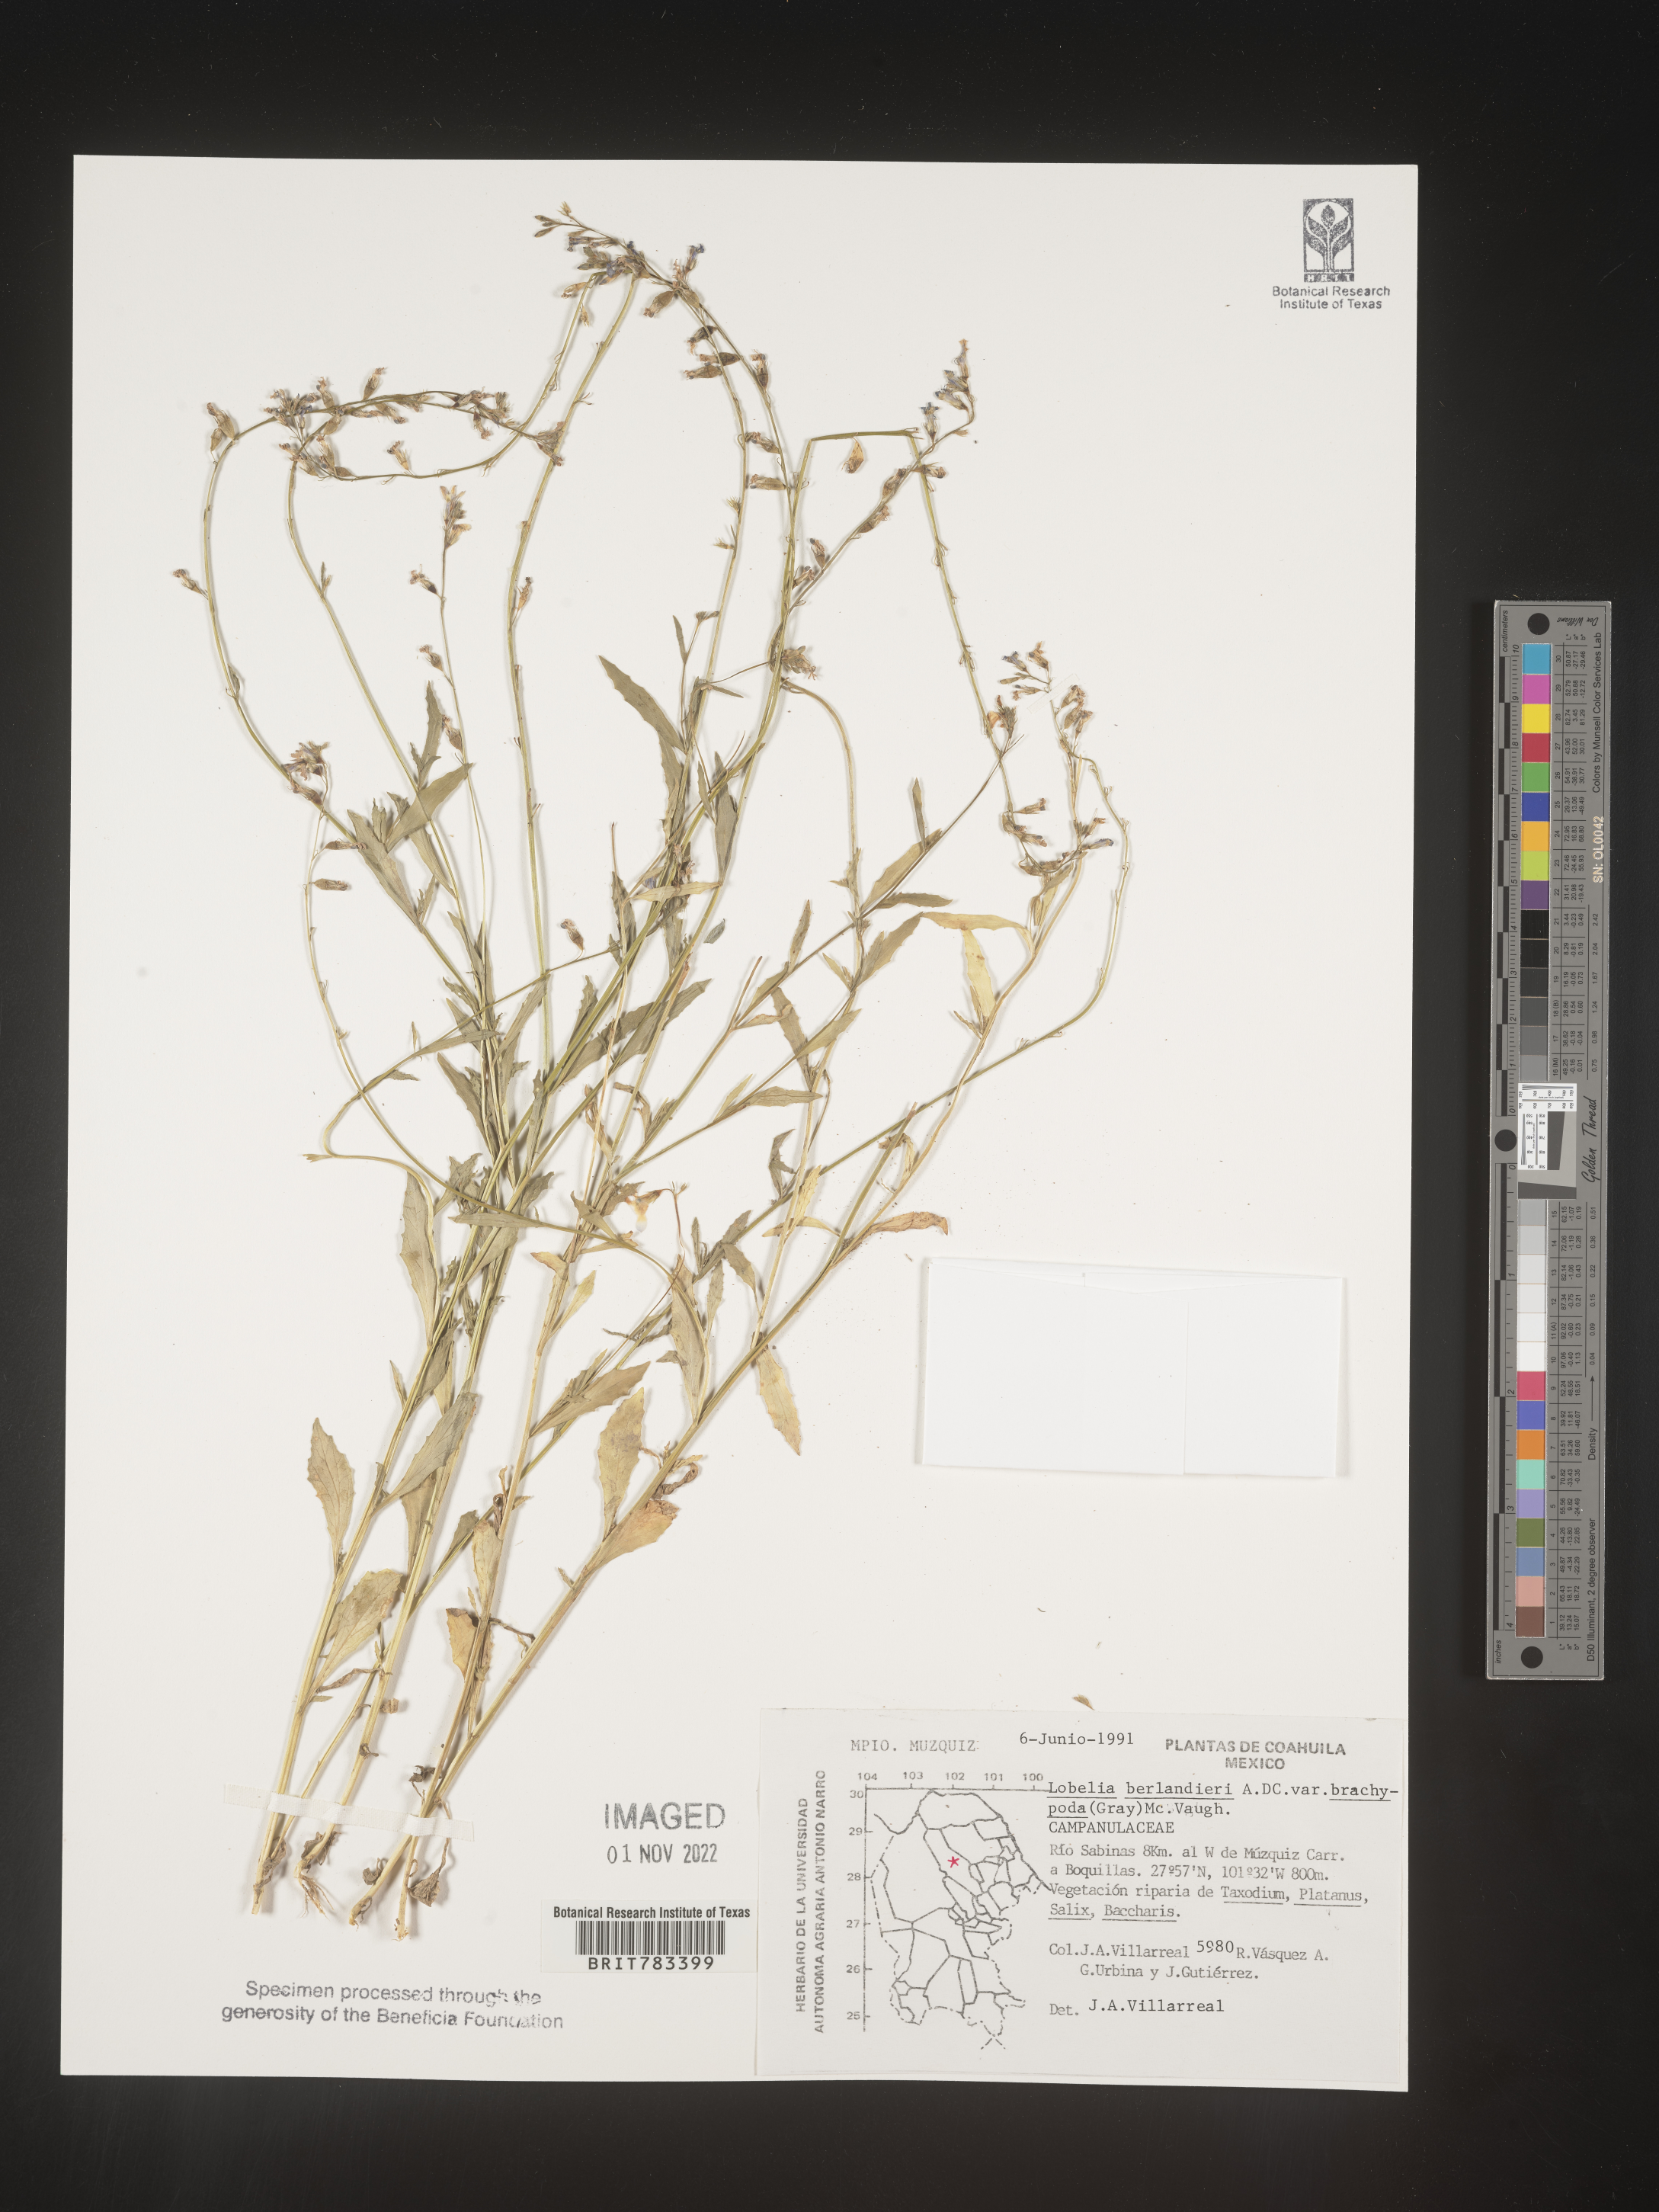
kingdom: Plantae
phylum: Tracheophyta
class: Magnoliopsida
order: Asterales
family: Campanulaceae
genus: Lobelia
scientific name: Lobelia
